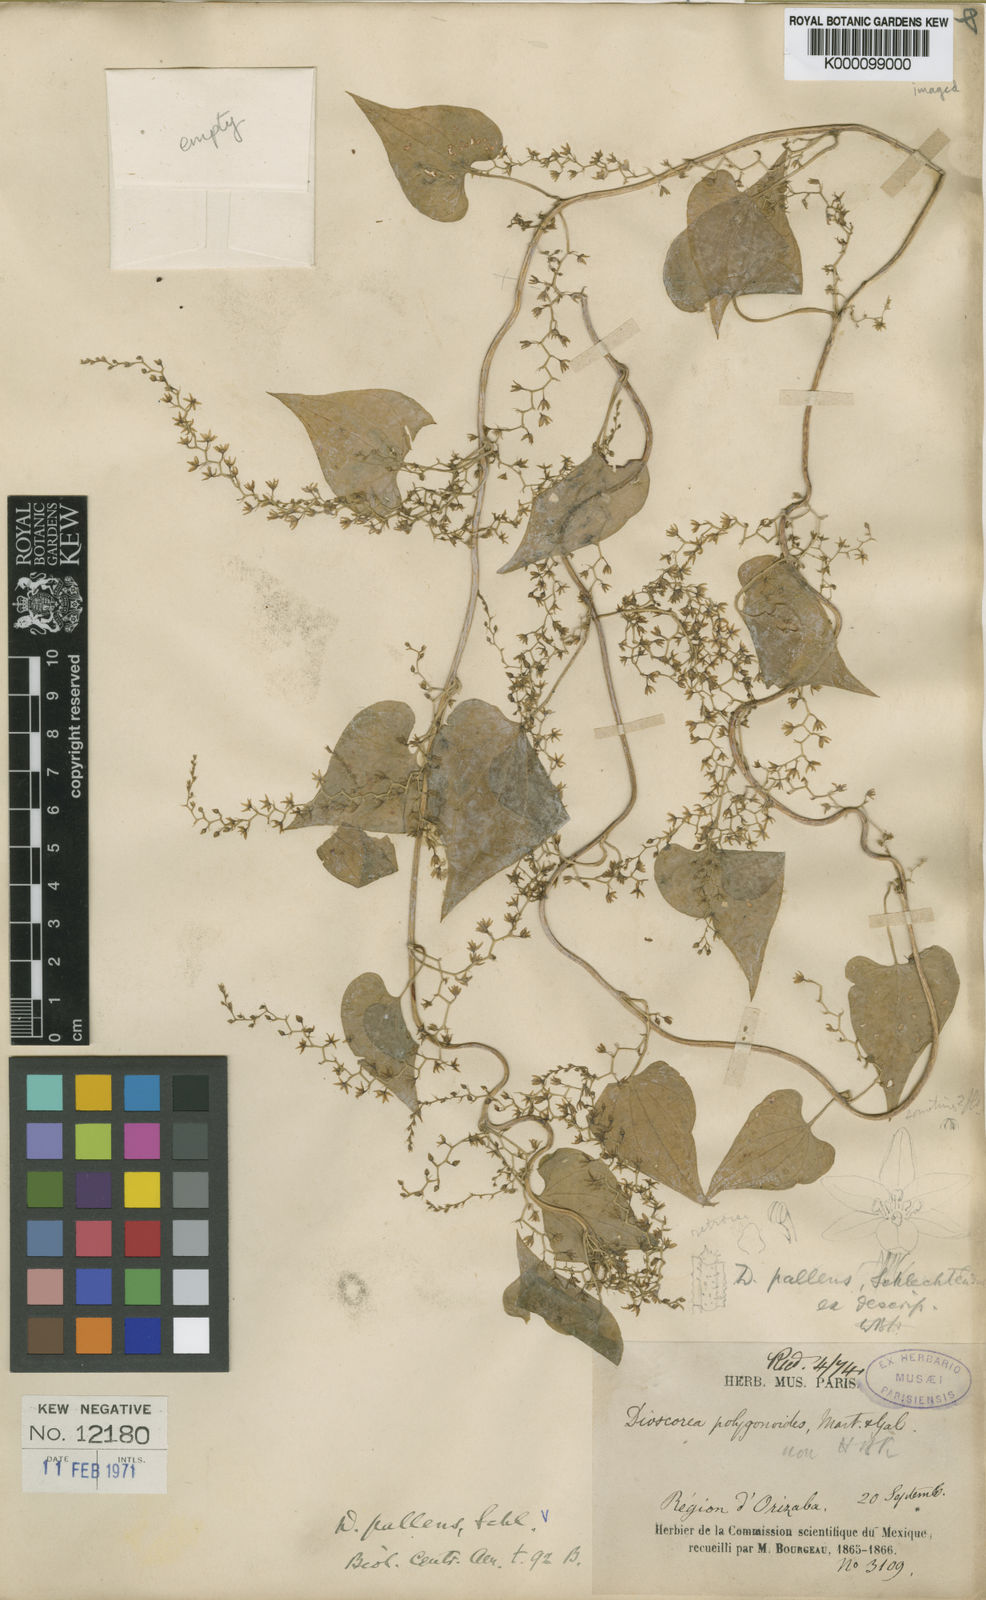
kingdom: Plantae
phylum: Tracheophyta
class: Liliopsida
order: Dioscoreales
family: Dioscoreaceae
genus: Dioscorea
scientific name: Dioscorea pallens
